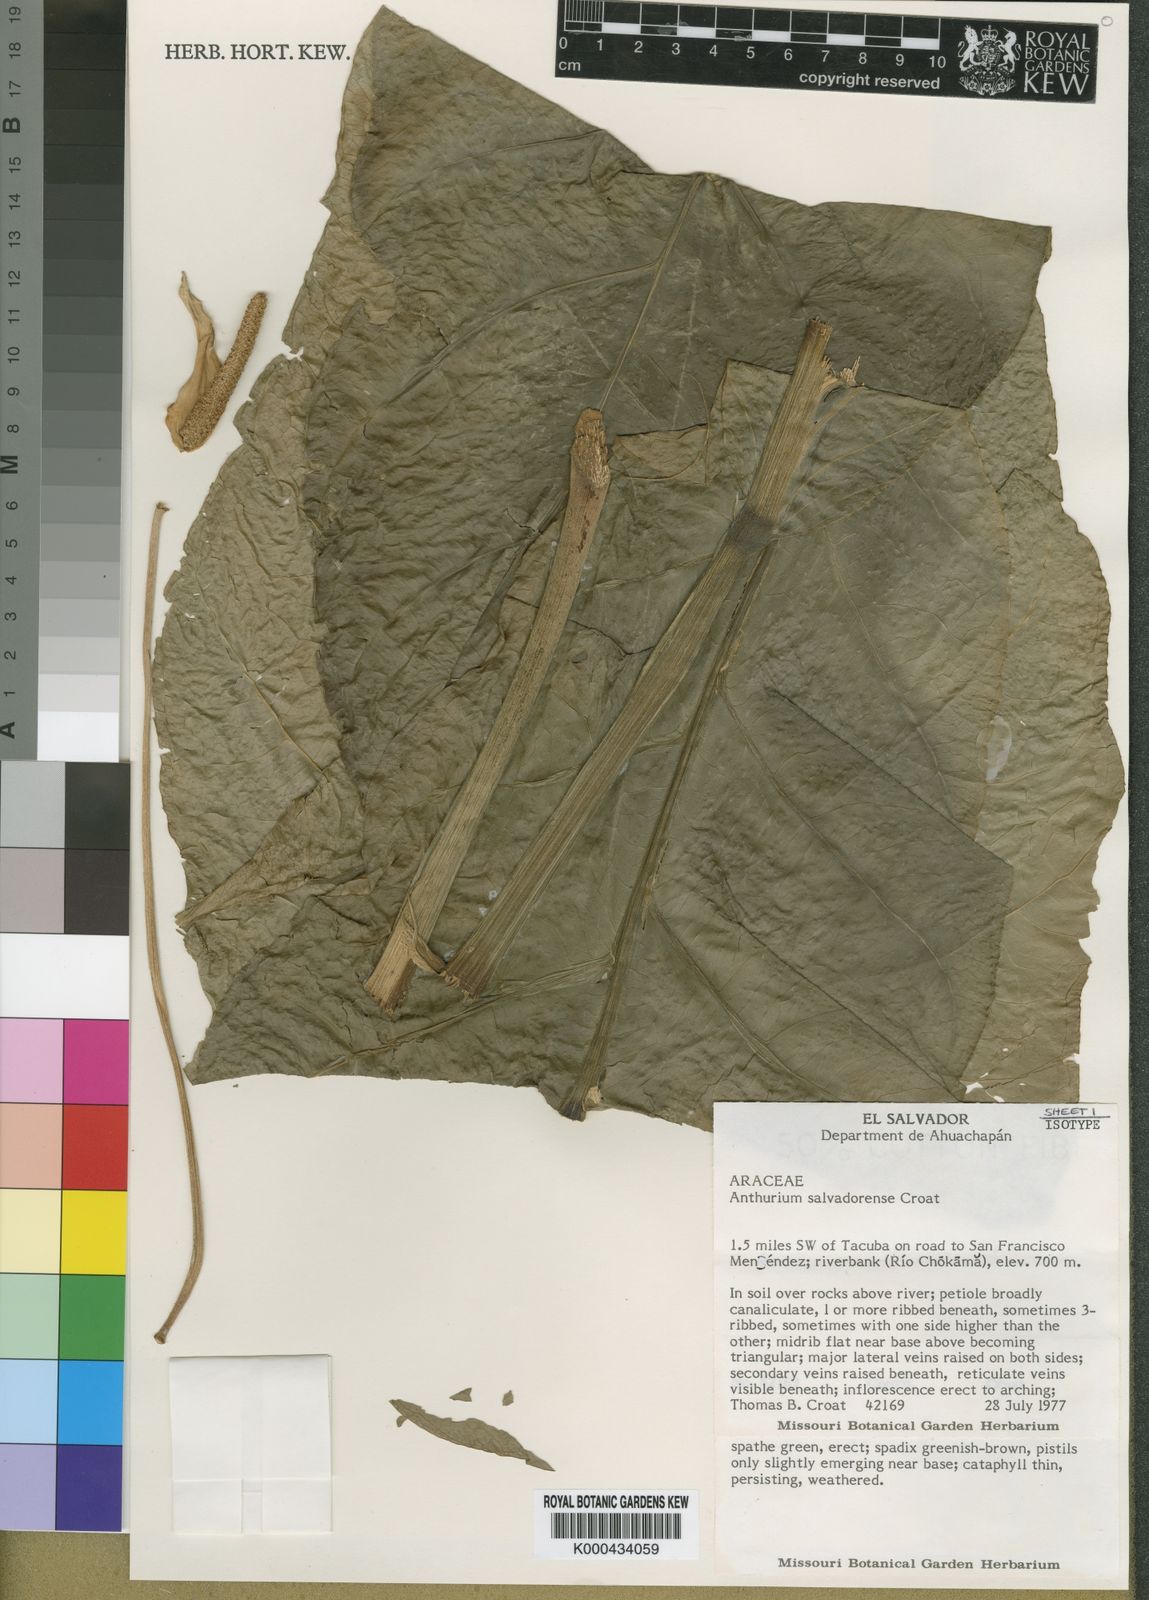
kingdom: Plantae
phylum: Tracheophyta
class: Liliopsida
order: Alismatales
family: Araceae
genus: Anthurium
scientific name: Anthurium salvadorense
